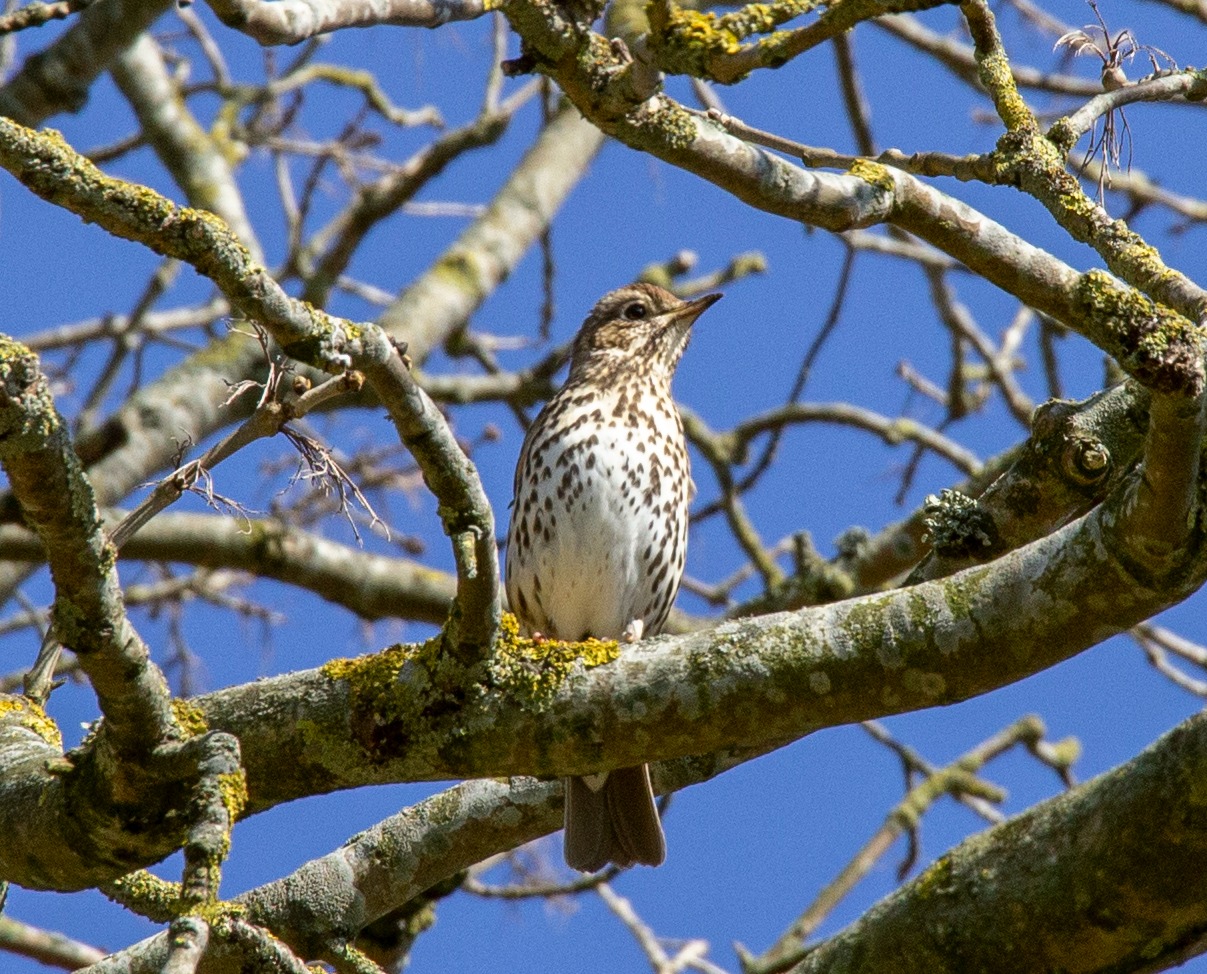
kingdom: Animalia
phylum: Chordata
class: Aves
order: Passeriformes
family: Turdidae
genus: Turdus
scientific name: Turdus philomelos
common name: Sangdrossel
